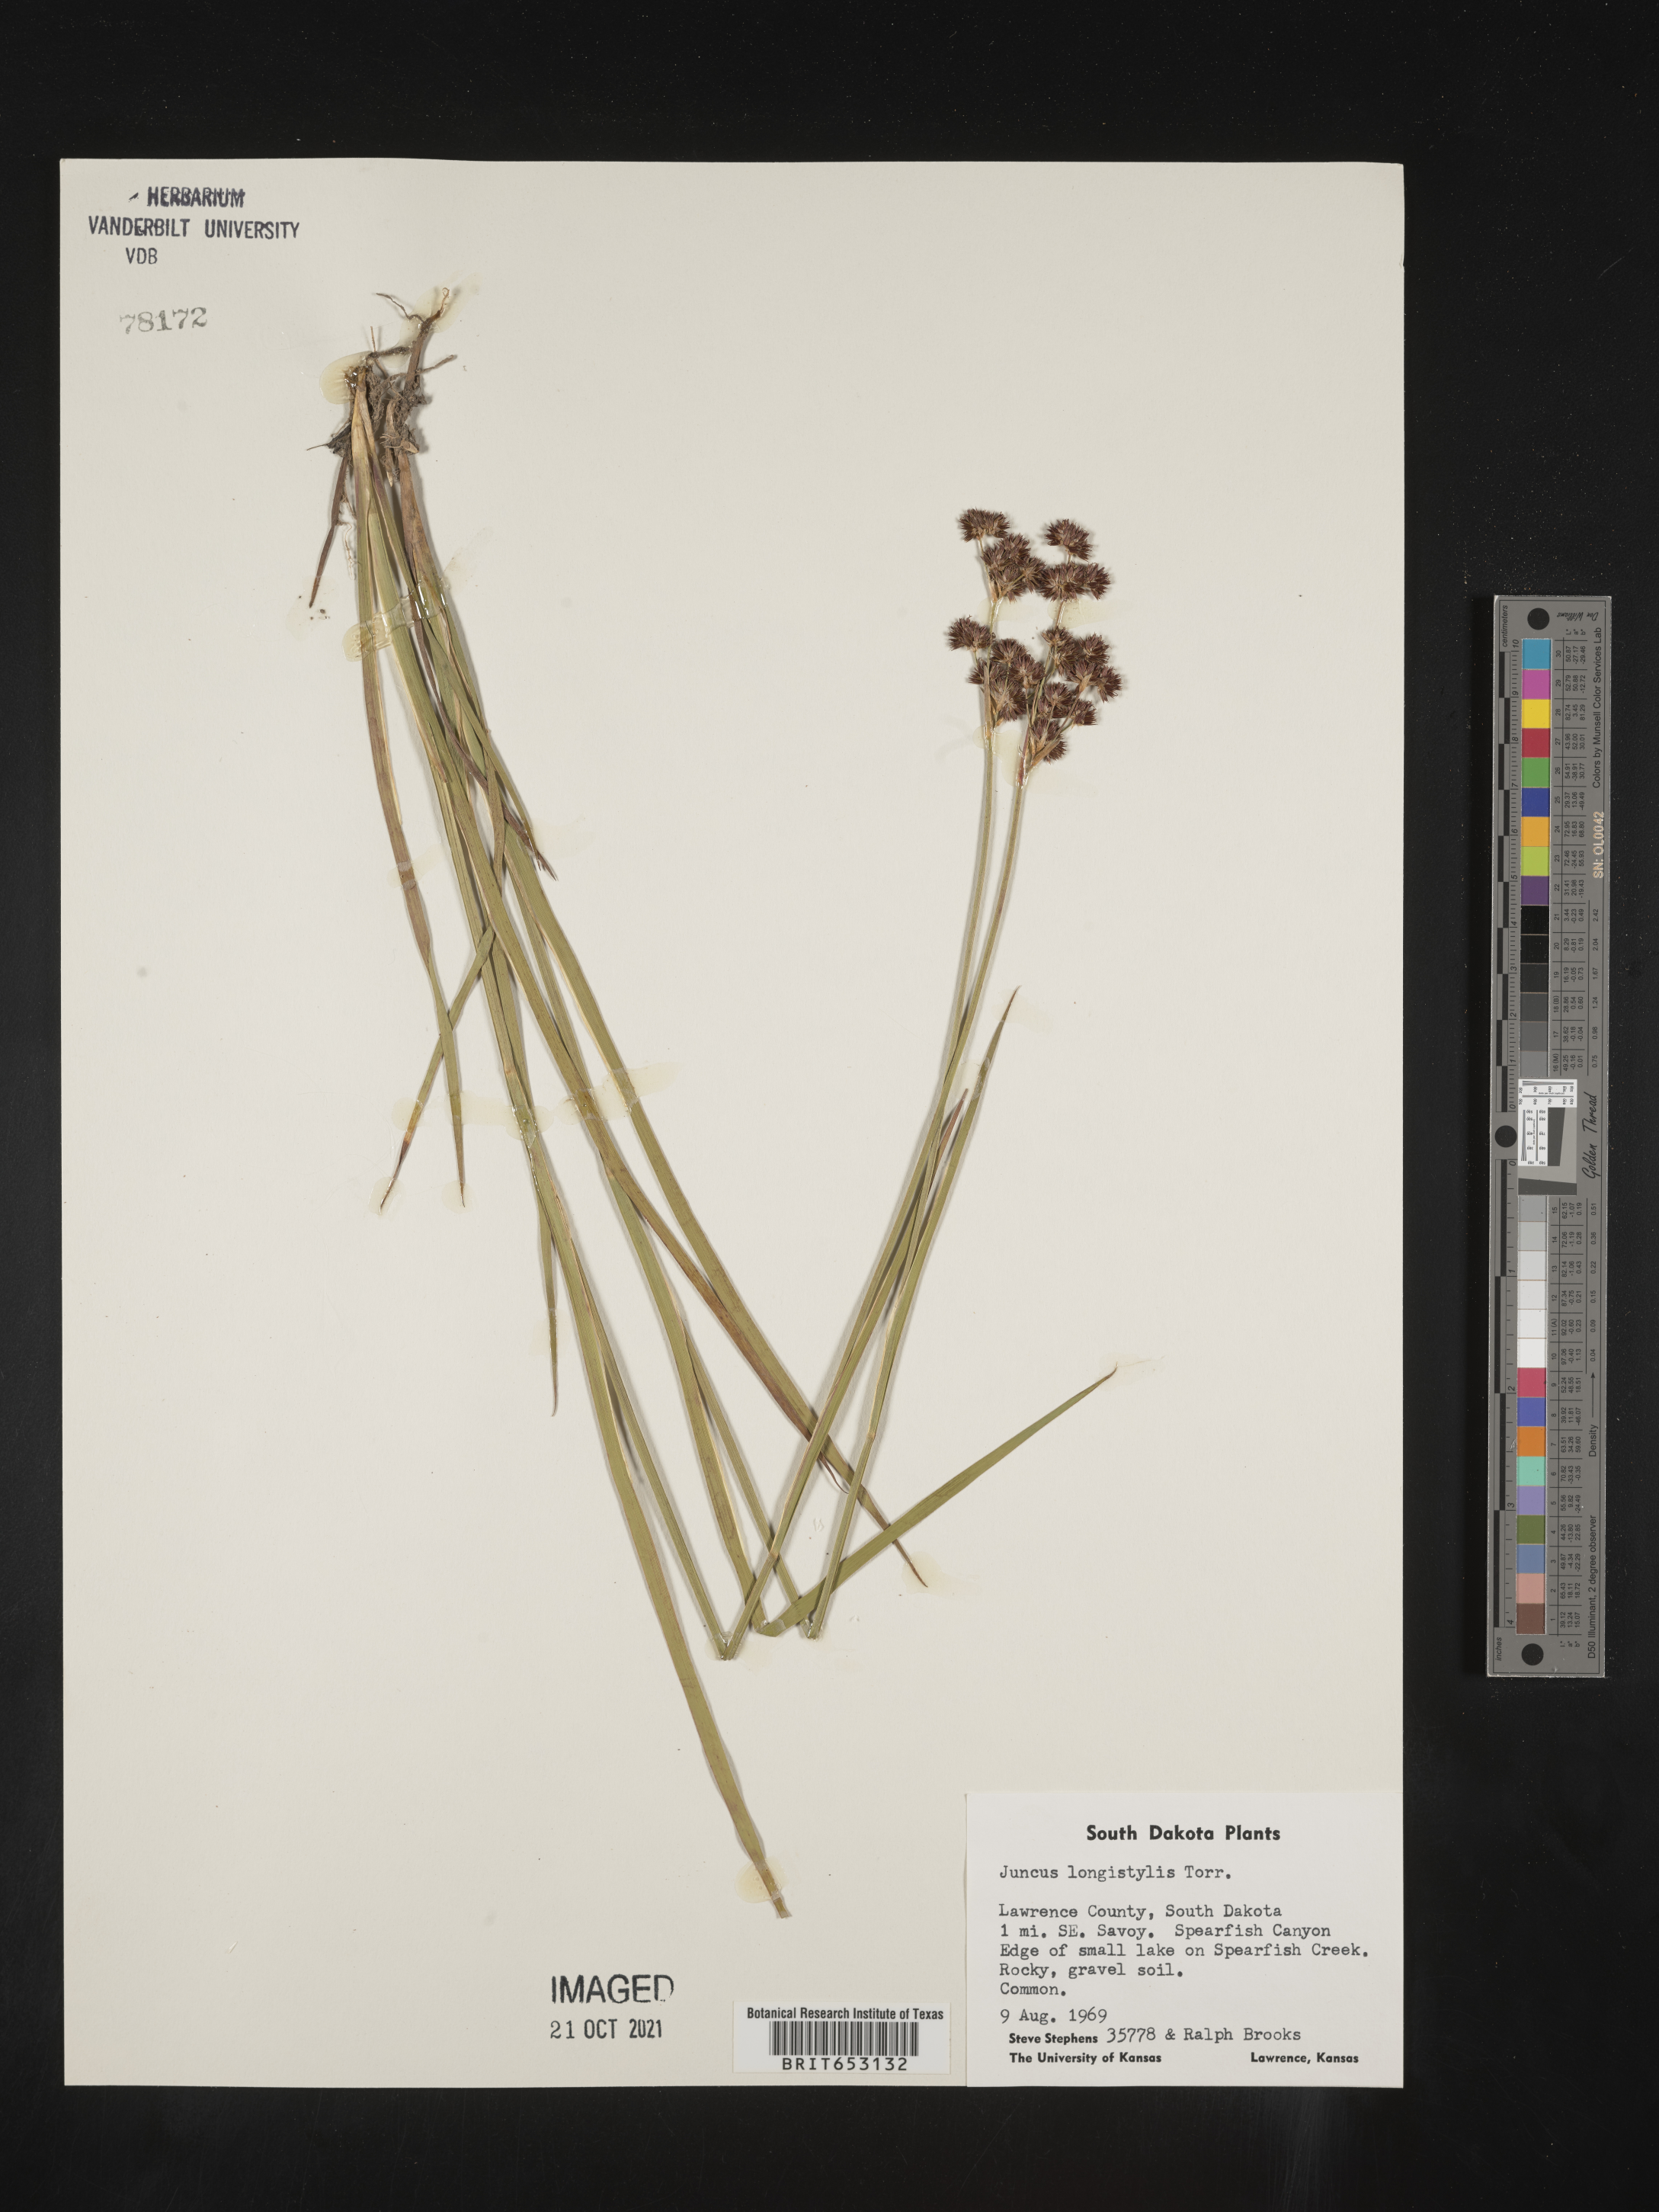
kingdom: Plantae
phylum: Tracheophyta
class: Liliopsida
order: Poales
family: Juncaceae
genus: Juncus
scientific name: Juncus longistylis
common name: Long-style rush
